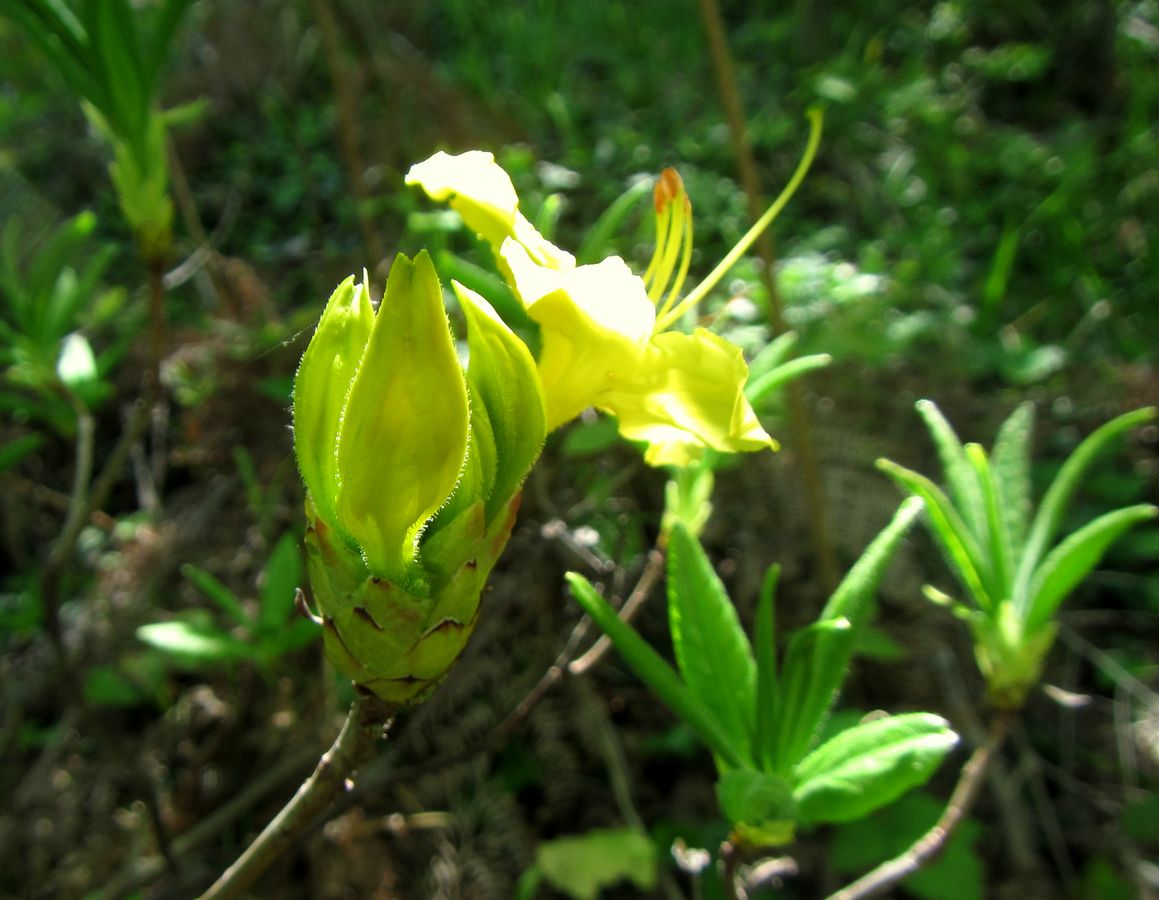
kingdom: Plantae
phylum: Tracheophyta
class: Magnoliopsida
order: Ericales
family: Ericaceae
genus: Rhododendron
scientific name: Rhododendron luteum
